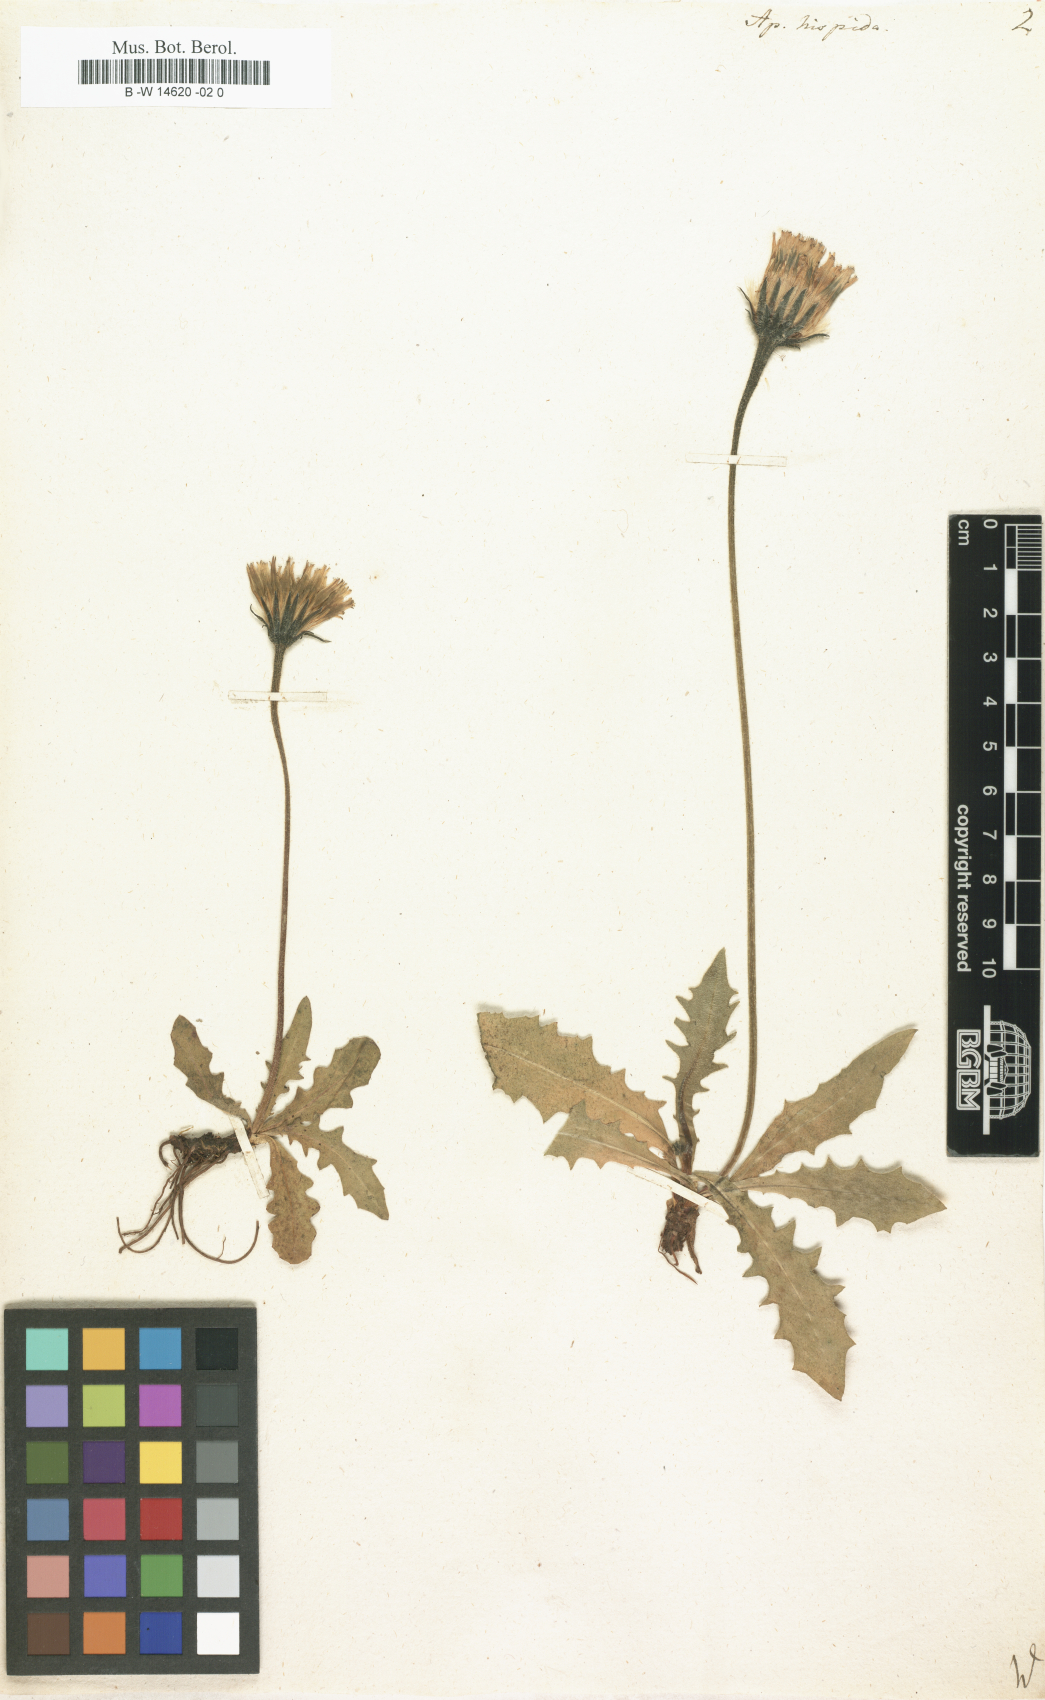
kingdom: Plantae
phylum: Tracheophyta
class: Magnoliopsida
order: Asterales
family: Asteraceae
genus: Leontodon
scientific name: Leontodon
